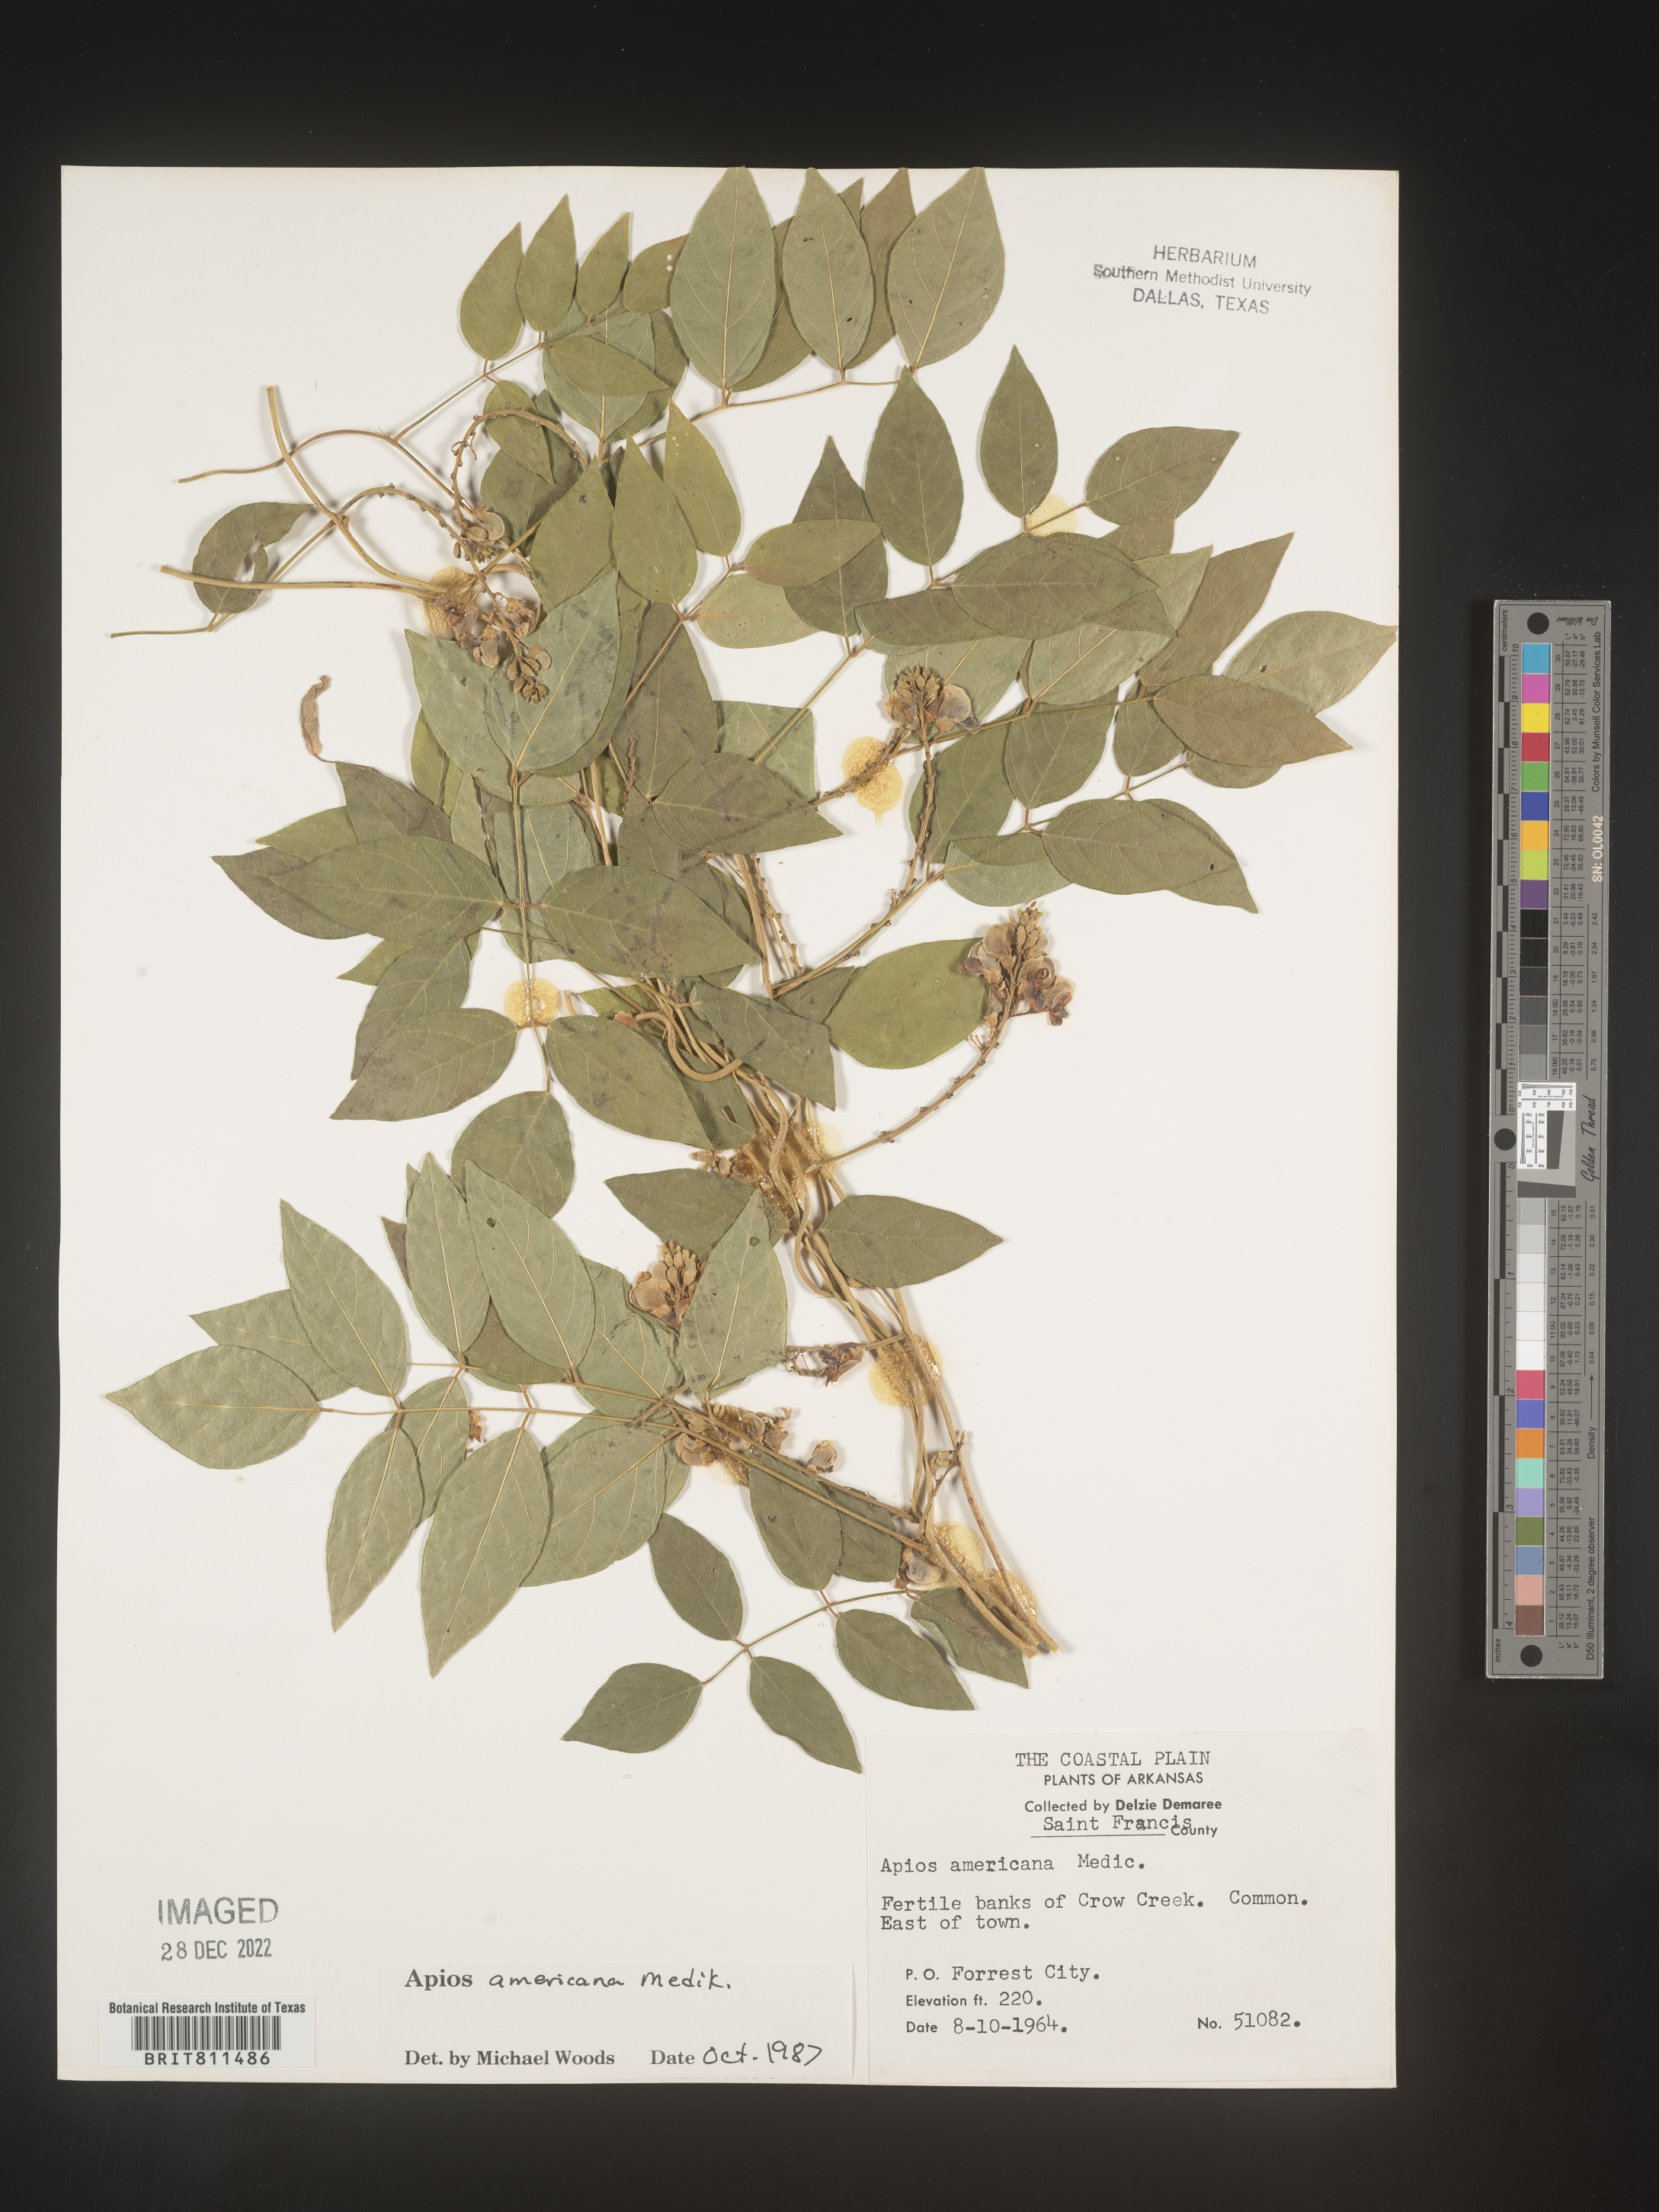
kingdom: Plantae
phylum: Tracheophyta
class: Magnoliopsida
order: Fabales
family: Fabaceae
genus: Apios
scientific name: Apios americana
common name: American potato-bean
